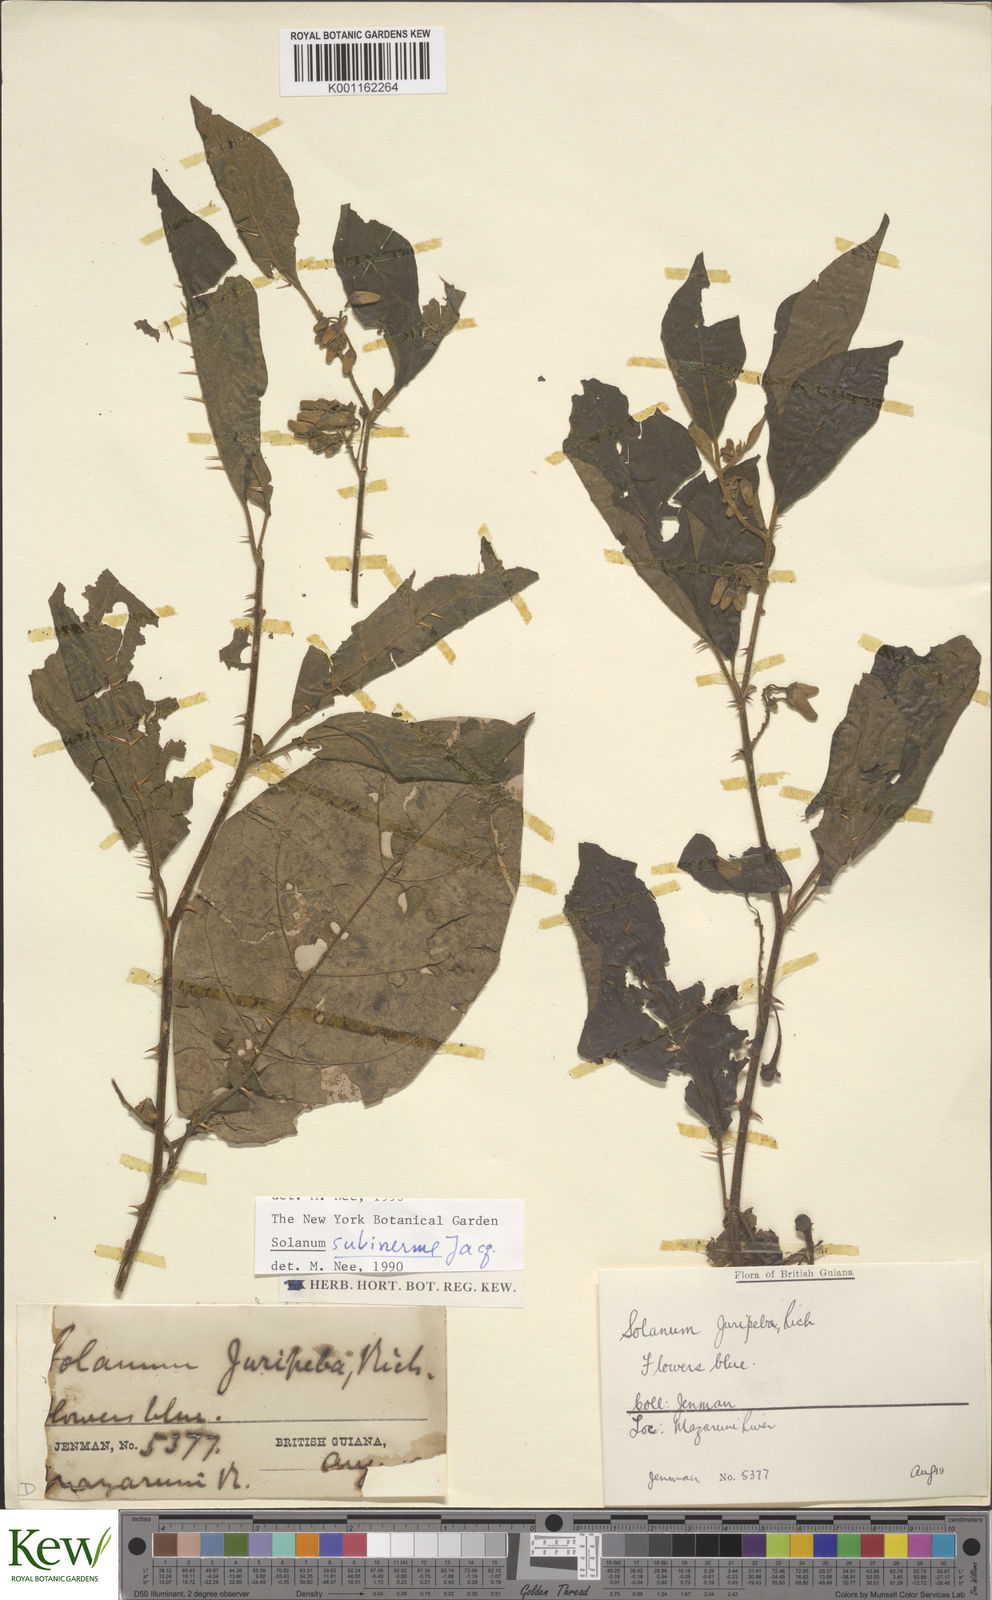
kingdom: Plantae
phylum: Tracheophyta
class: Magnoliopsida
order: Solanales
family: Solanaceae
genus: Solanum
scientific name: Solanum subinerme
